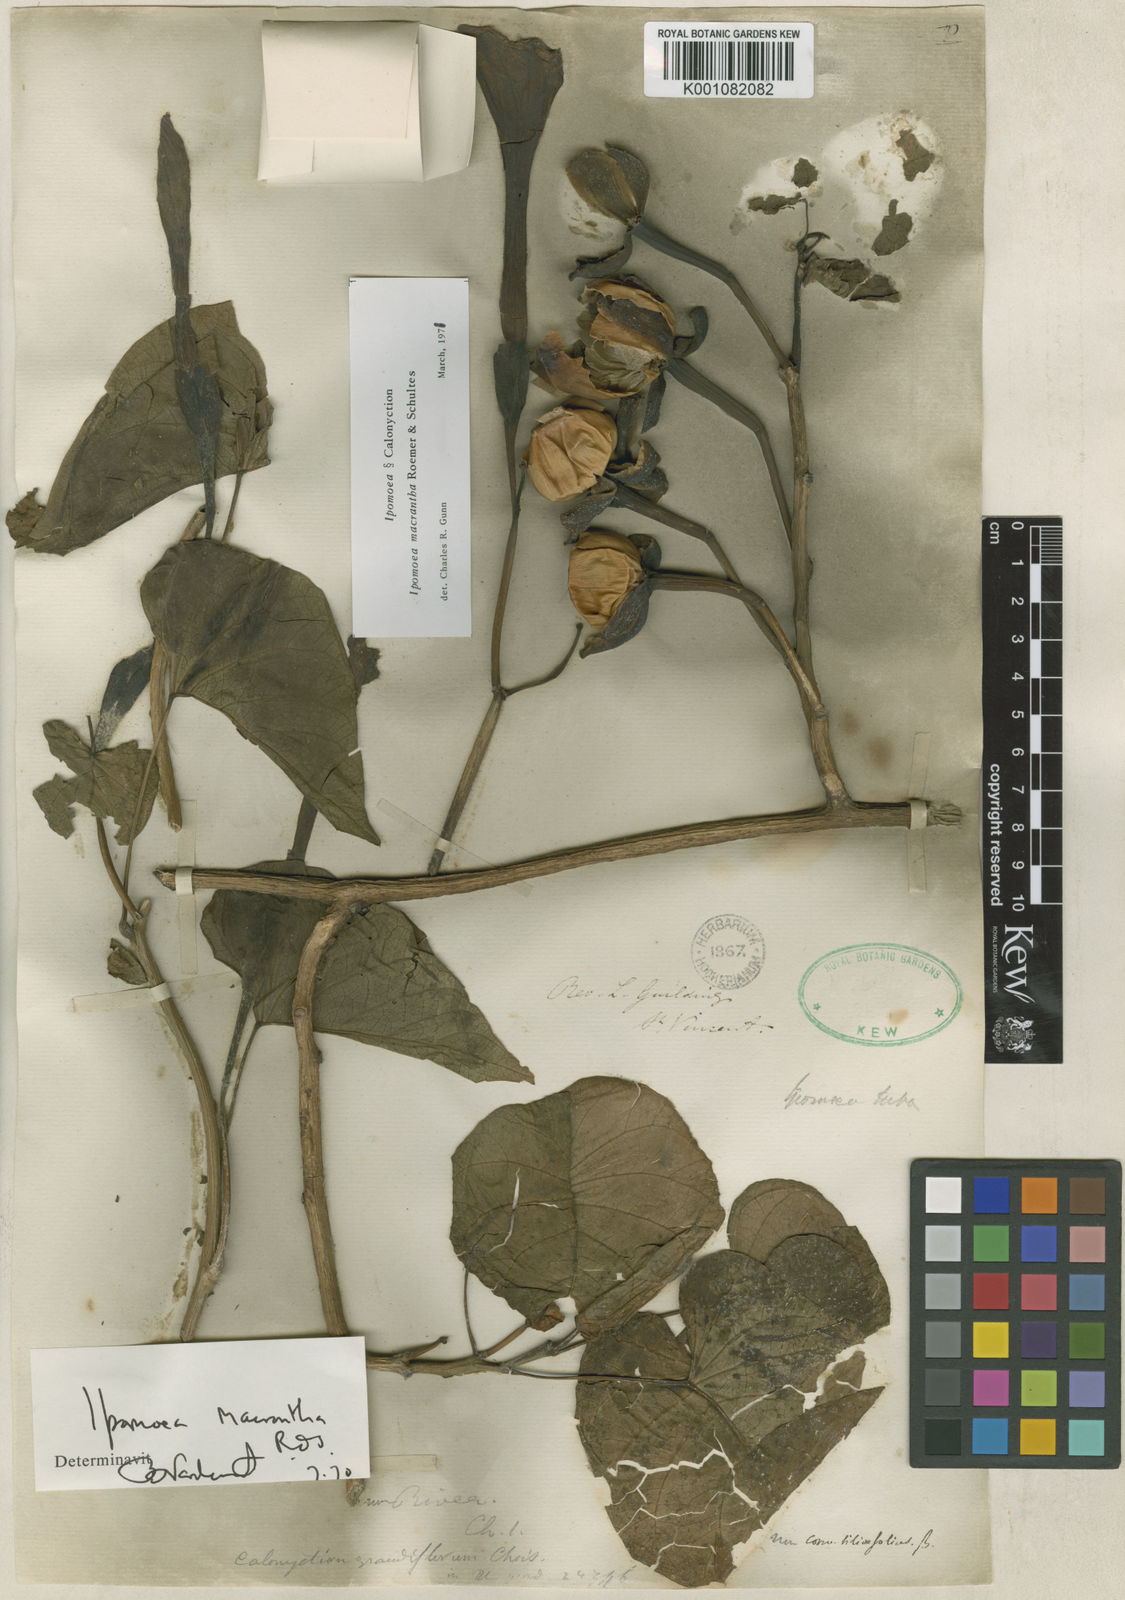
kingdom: Plantae
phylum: Tracheophyta
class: Magnoliopsida
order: Solanales
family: Convolvulaceae
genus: Ipomoea
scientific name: Ipomoea violacea
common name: Beach moonflower
